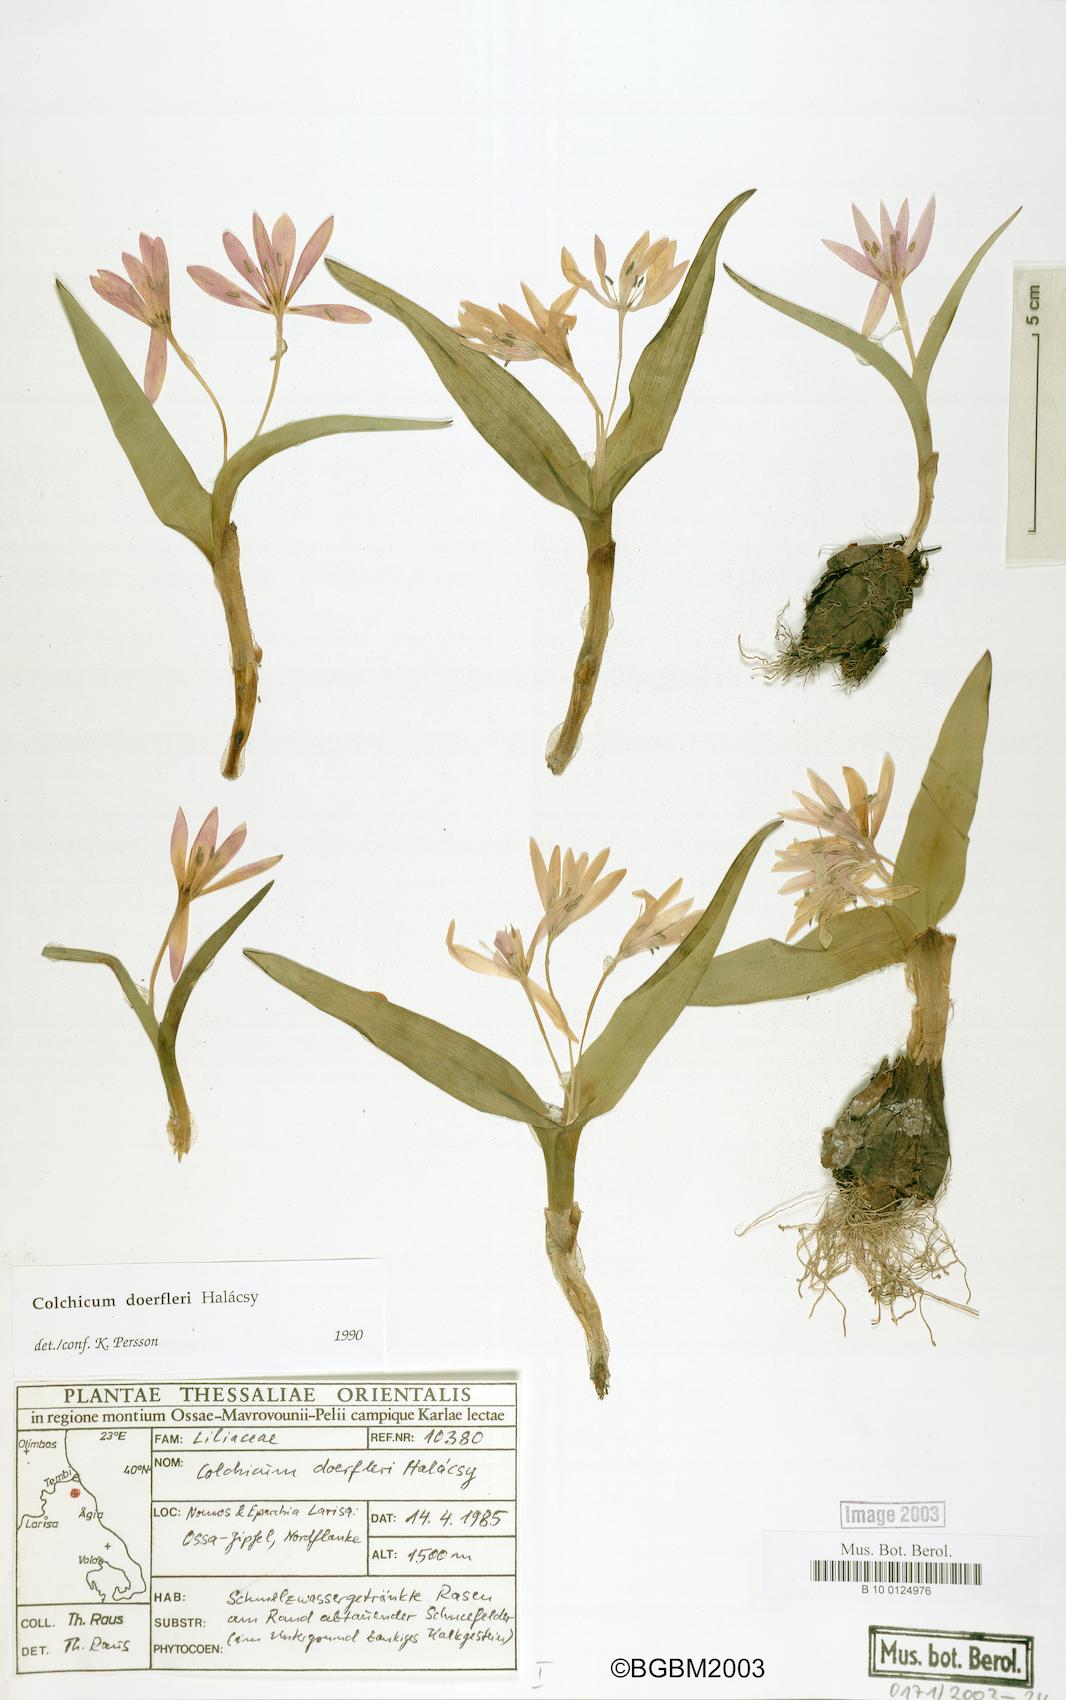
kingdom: Plantae
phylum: Tracheophyta
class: Liliopsida
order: Liliales
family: Colchicaceae
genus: Colchicum
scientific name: Colchicum doerfleri
